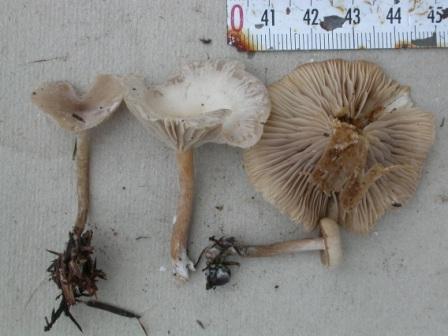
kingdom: Fungi
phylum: Basidiomycota
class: Agaricomycetes
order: Agaricales
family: Tricholomataceae
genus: Clitocybe
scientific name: Clitocybe amarescens
